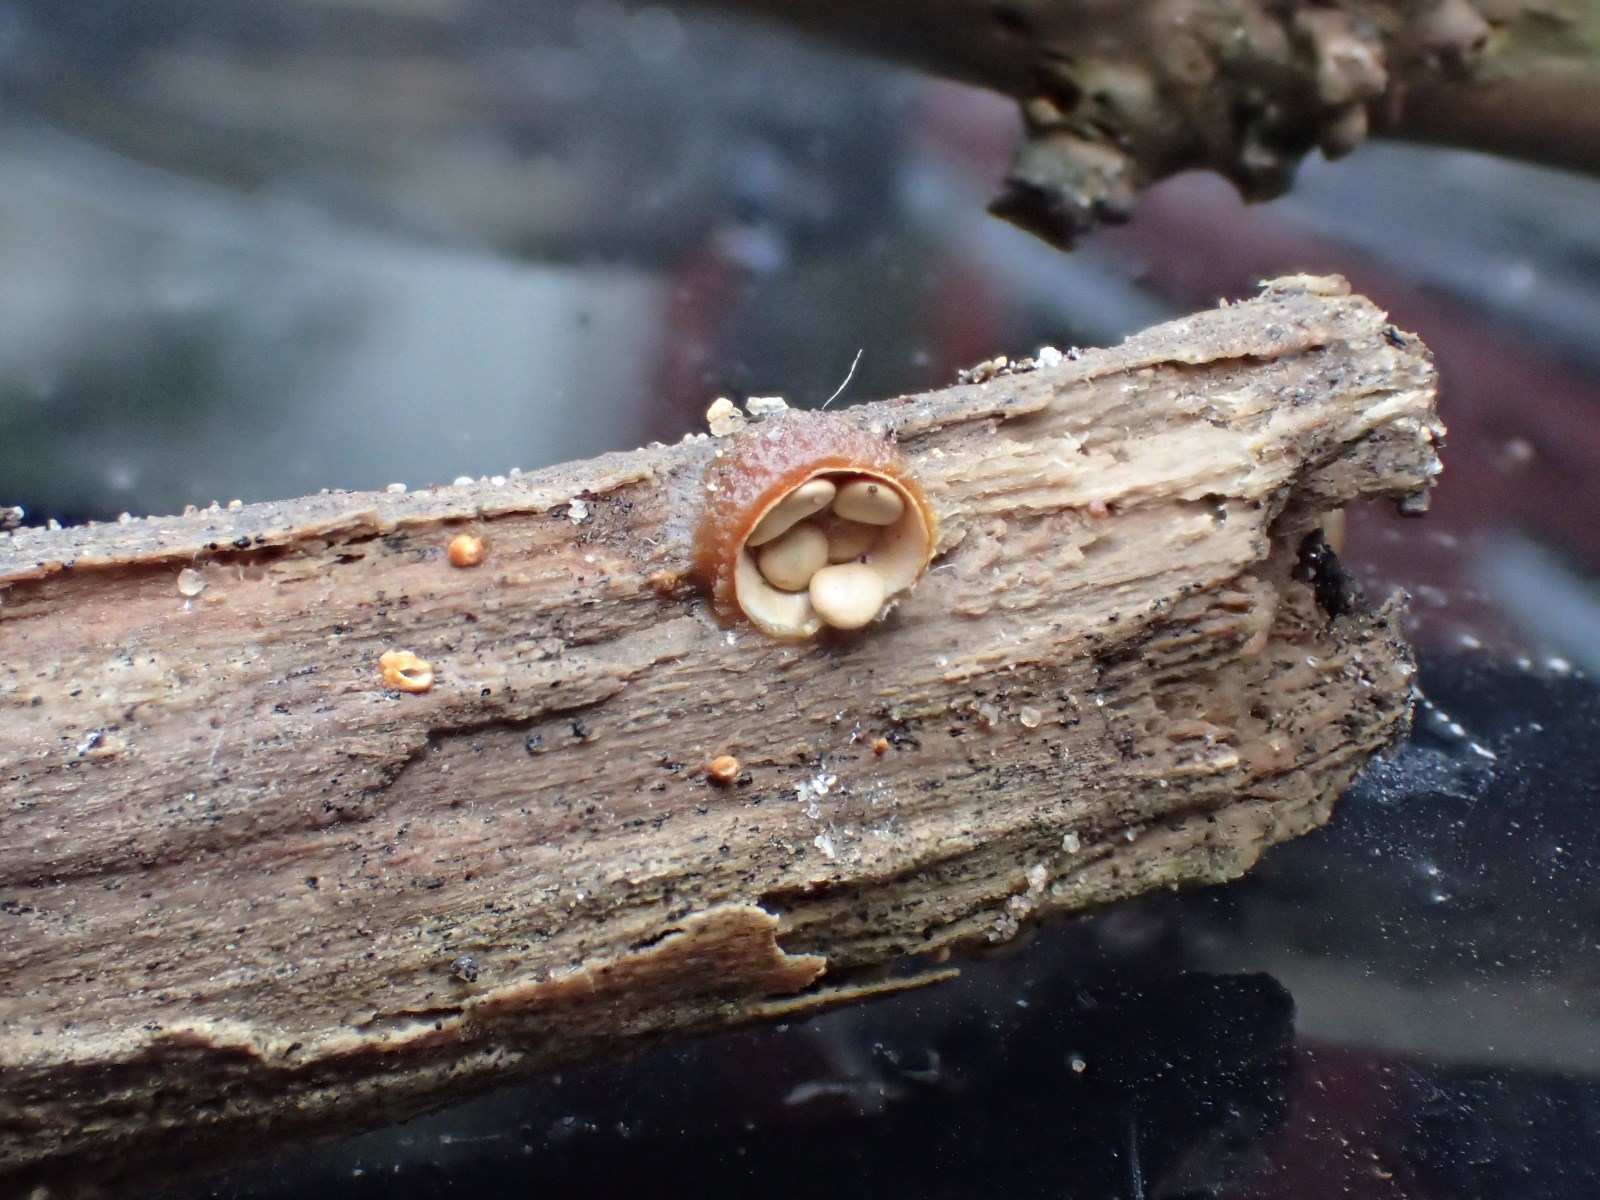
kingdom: Fungi
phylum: Basidiomycota
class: Agaricomycetes
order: Agaricales
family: Nidulariaceae
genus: Crucibulum
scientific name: Crucibulum crucibuliforme
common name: krukkesvamp
